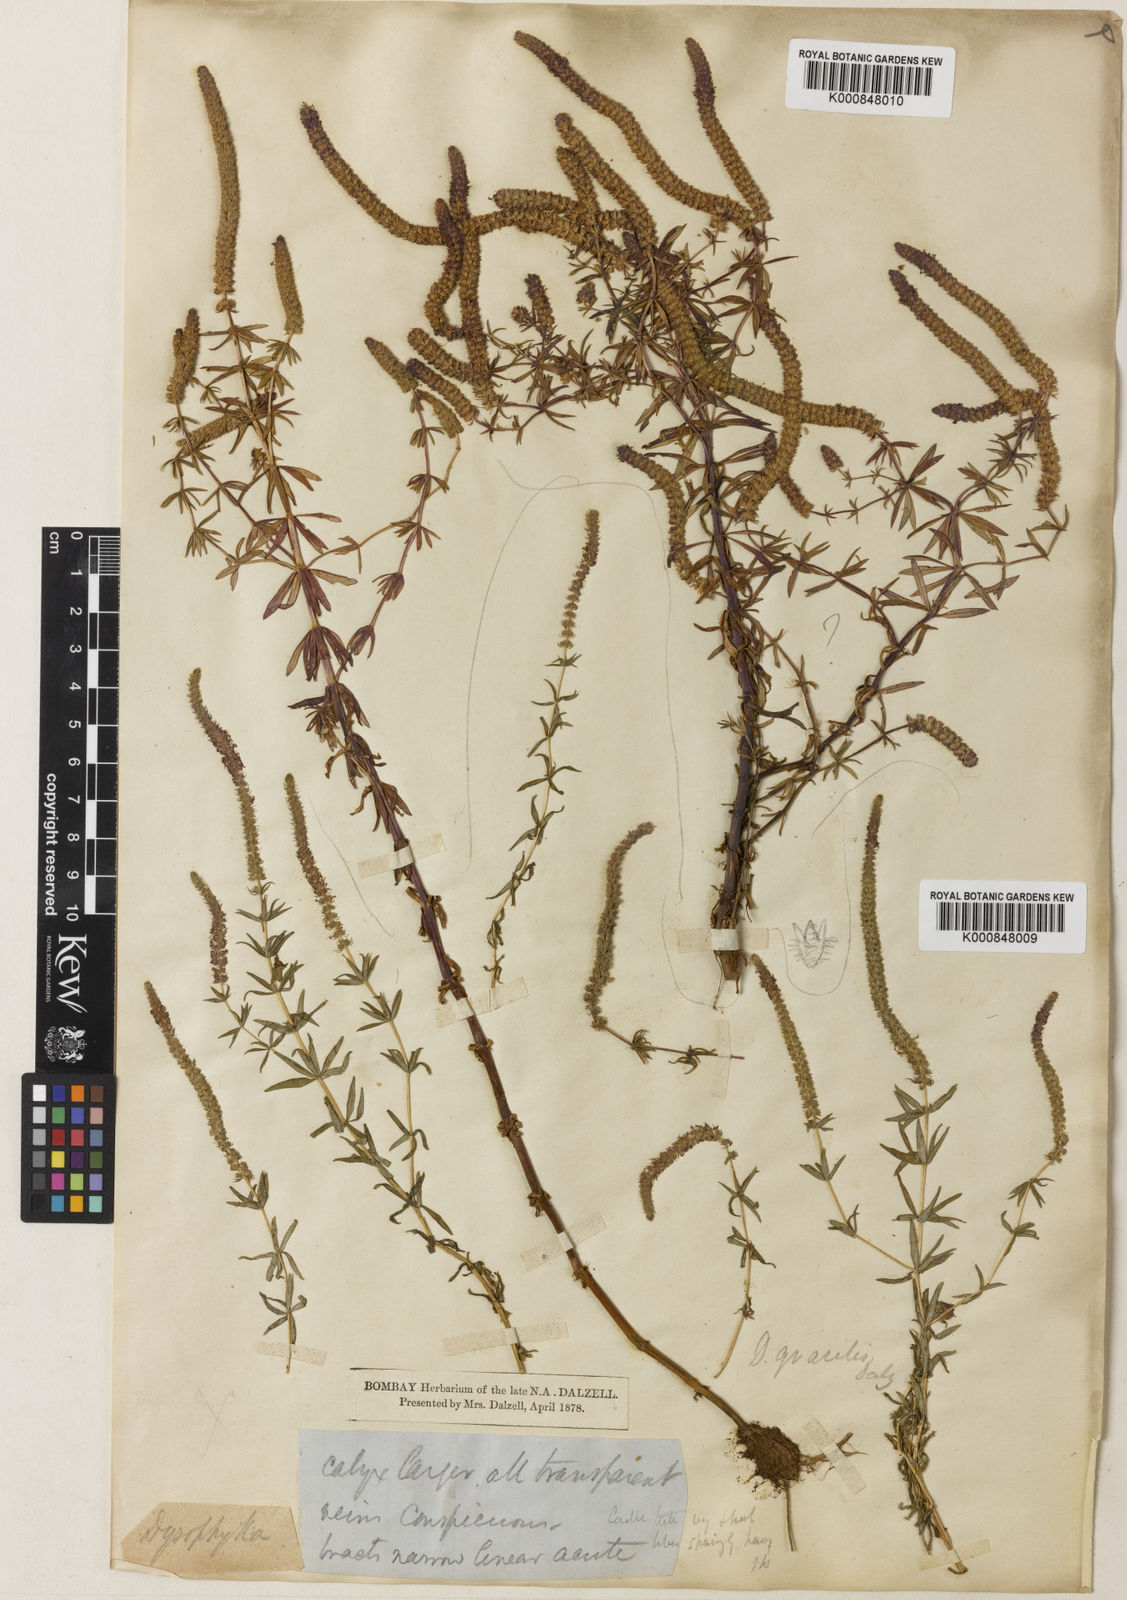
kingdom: Plantae
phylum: Tracheophyta
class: Magnoliopsida
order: Lamiales
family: Lamiaceae
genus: Pogostemon
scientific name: Pogostemon erectus
